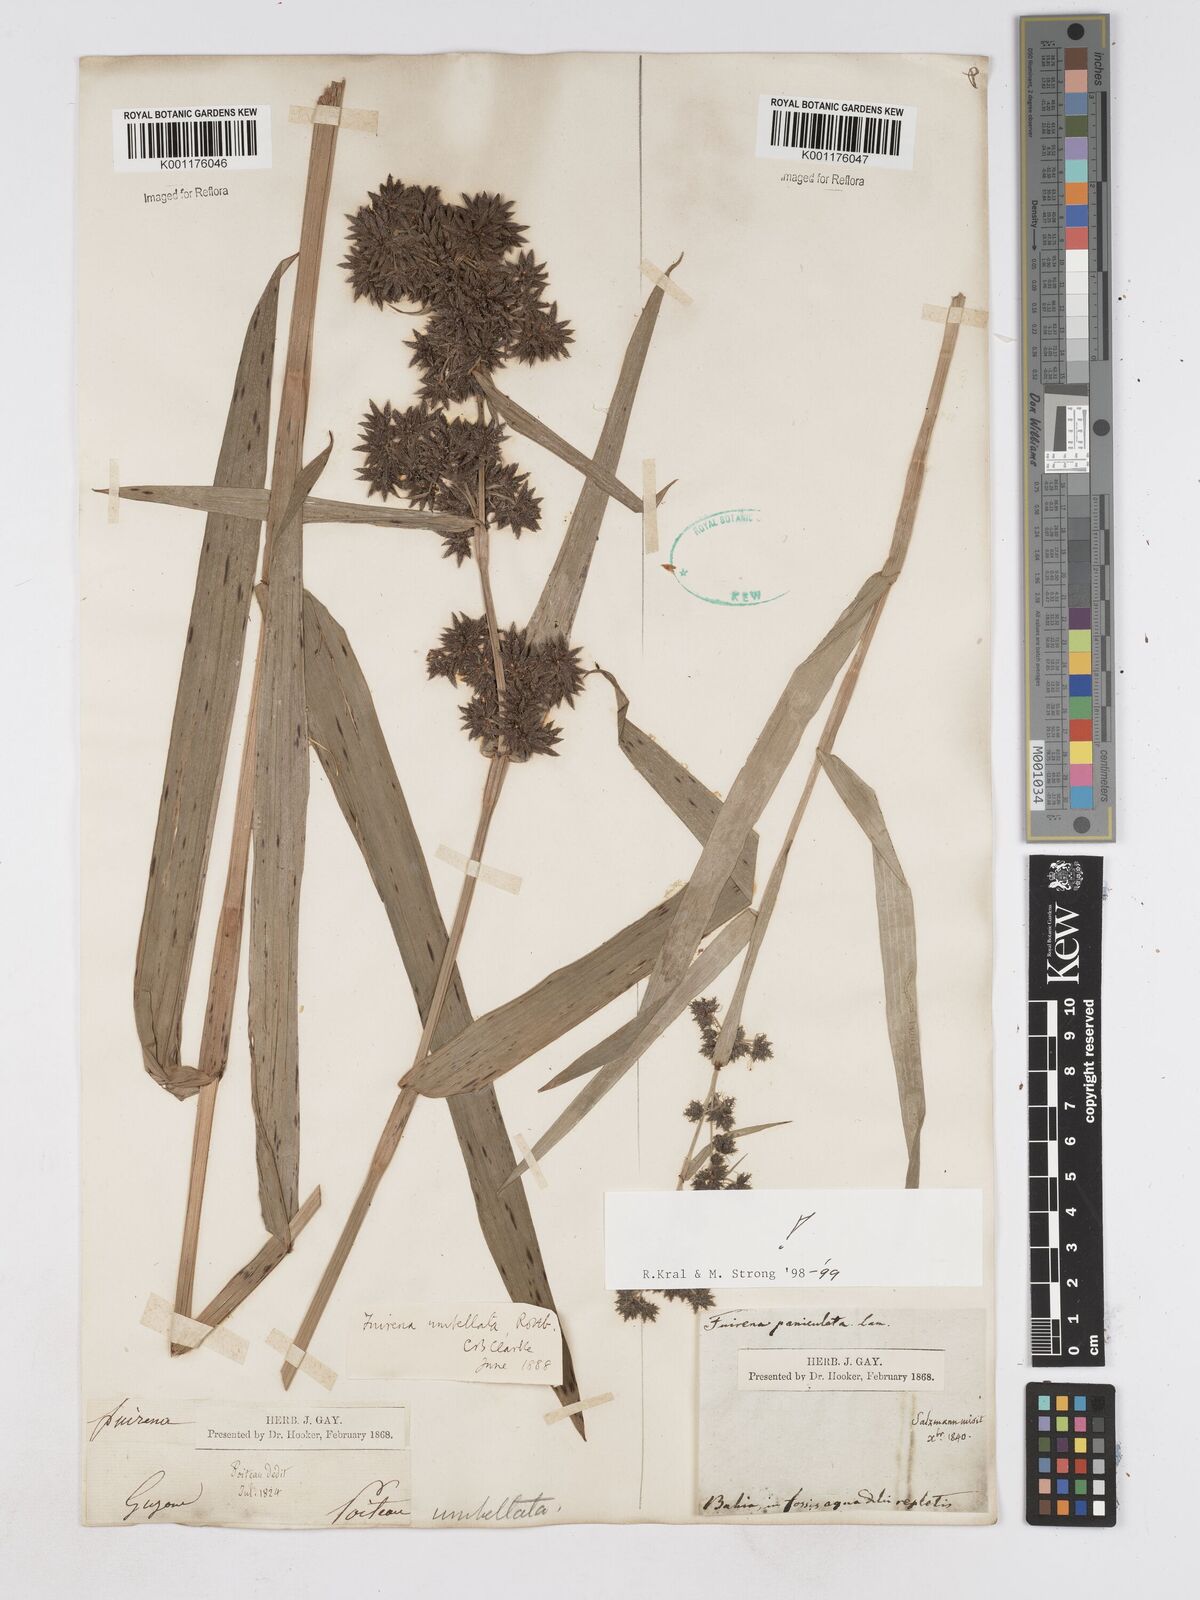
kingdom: Plantae
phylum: Tracheophyta
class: Liliopsida
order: Poales
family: Cyperaceae
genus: Fuirena
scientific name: Fuirena umbellata
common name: Yefen
